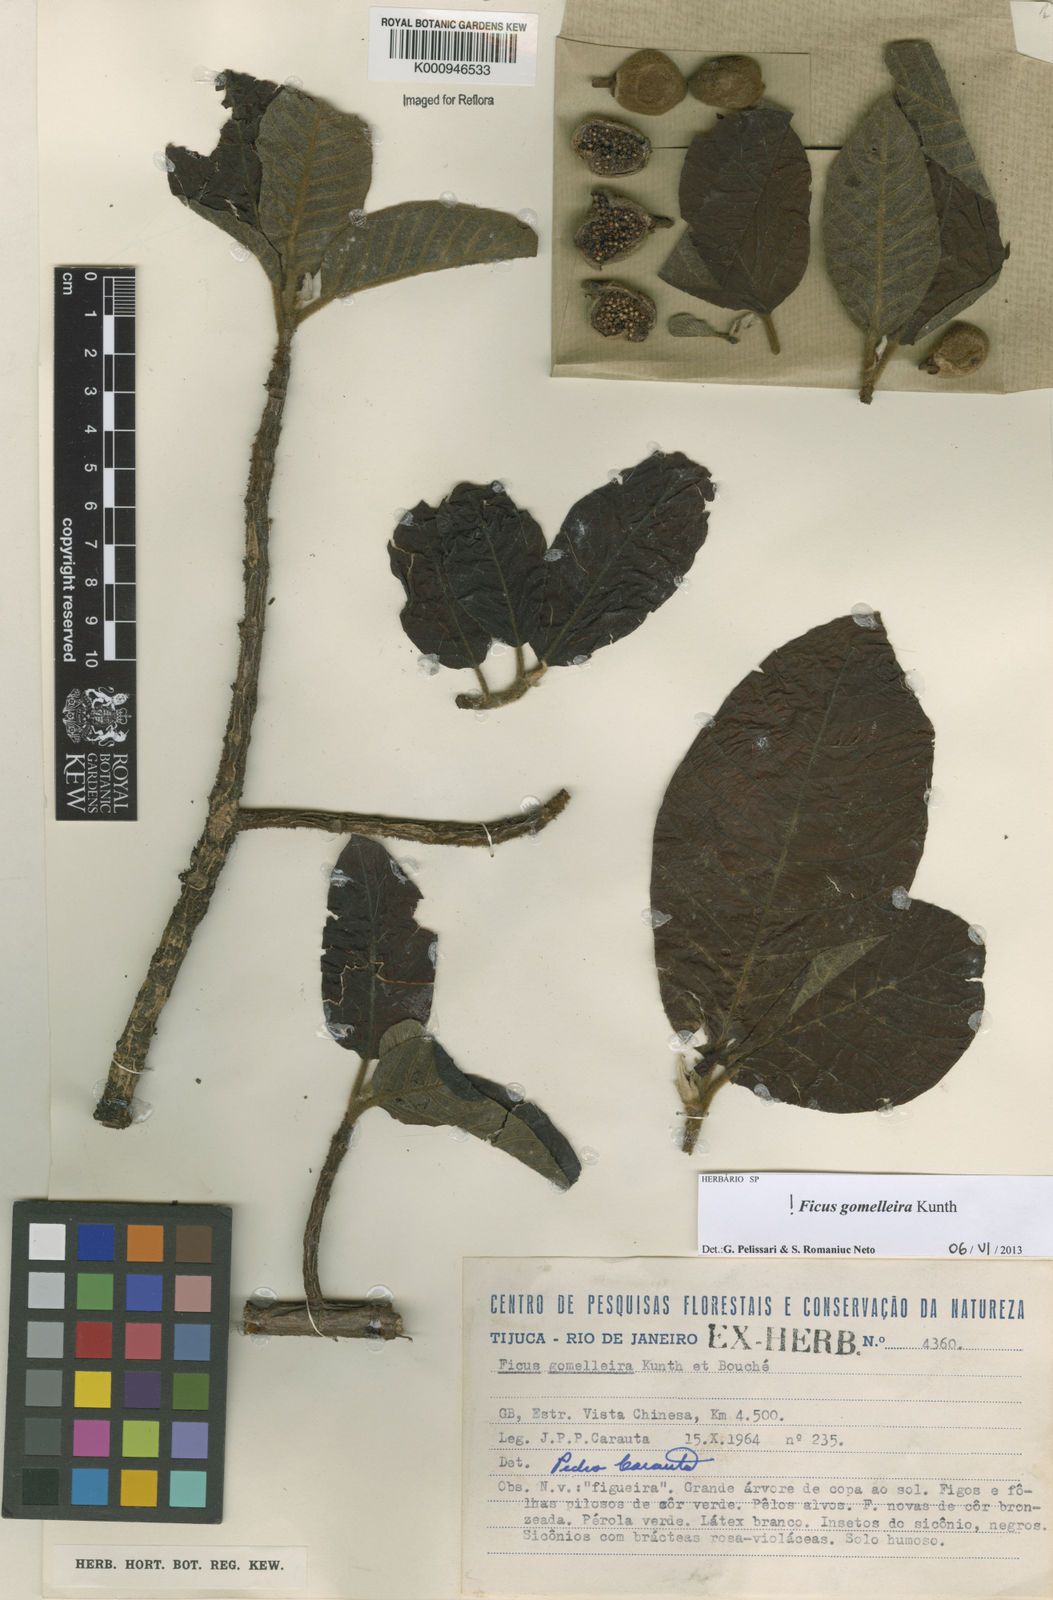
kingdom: Plantae
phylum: Tracheophyta
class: Magnoliopsida
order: Rosales
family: Moraceae
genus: Ficus
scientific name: Ficus gomelleira
